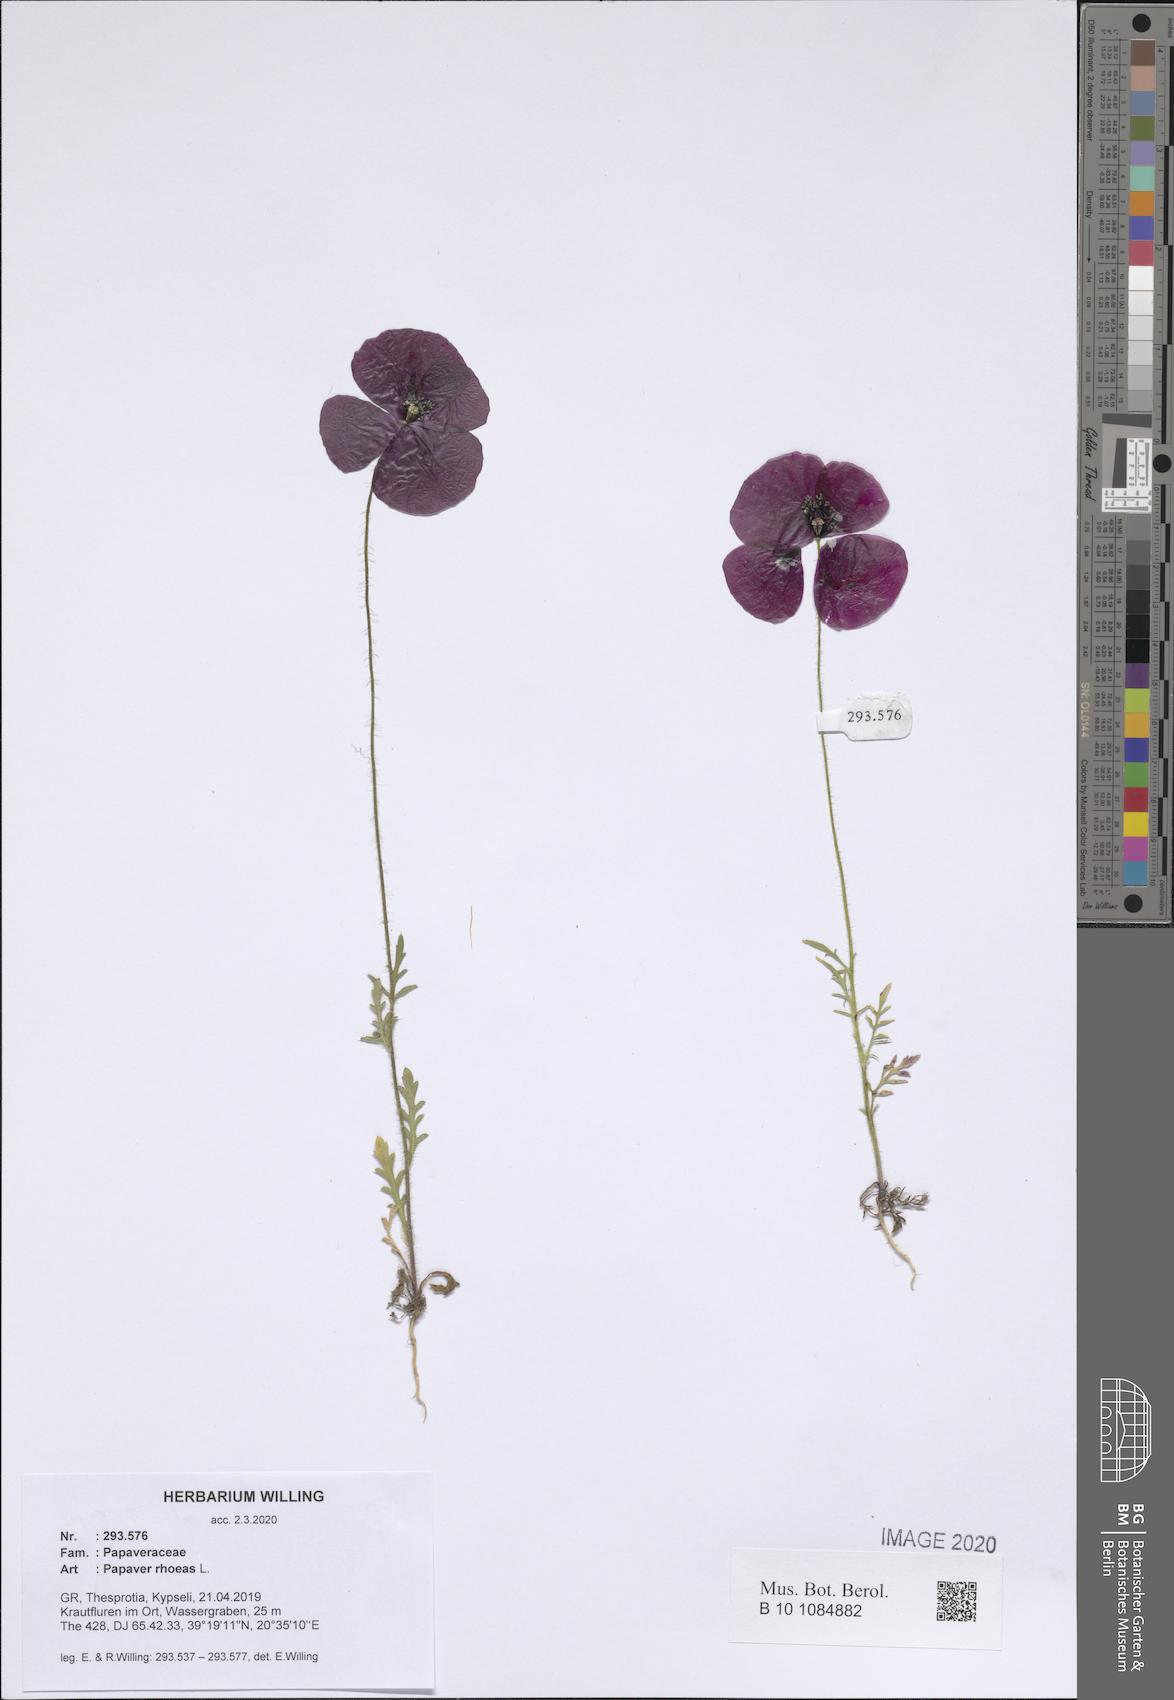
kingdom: Plantae
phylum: Tracheophyta
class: Magnoliopsida
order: Ranunculales
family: Papaveraceae
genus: Papaver
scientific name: Papaver rhoeas
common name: Corn poppy
